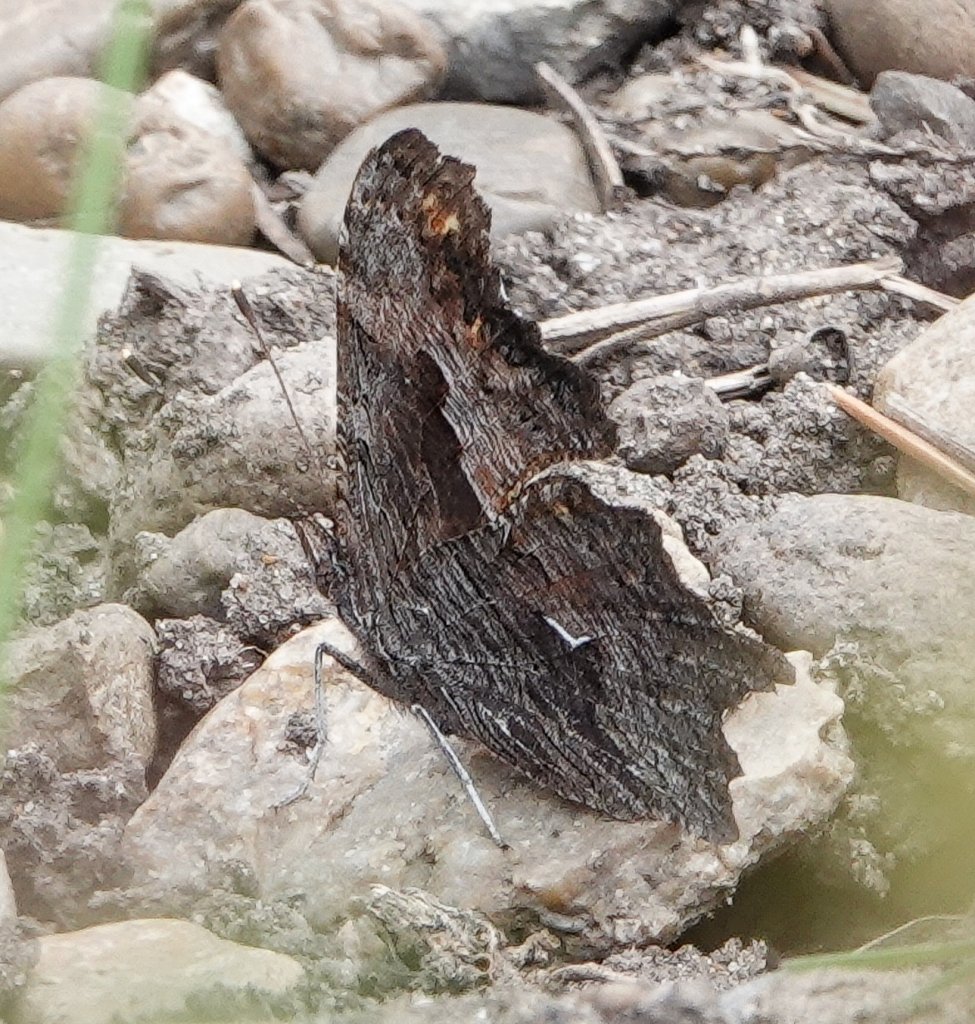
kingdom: Animalia
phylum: Arthropoda
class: Insecta
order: Lepidoptera
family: Nymphalidae
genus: Polygonia
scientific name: Polygonia progne
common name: Gray Comma
